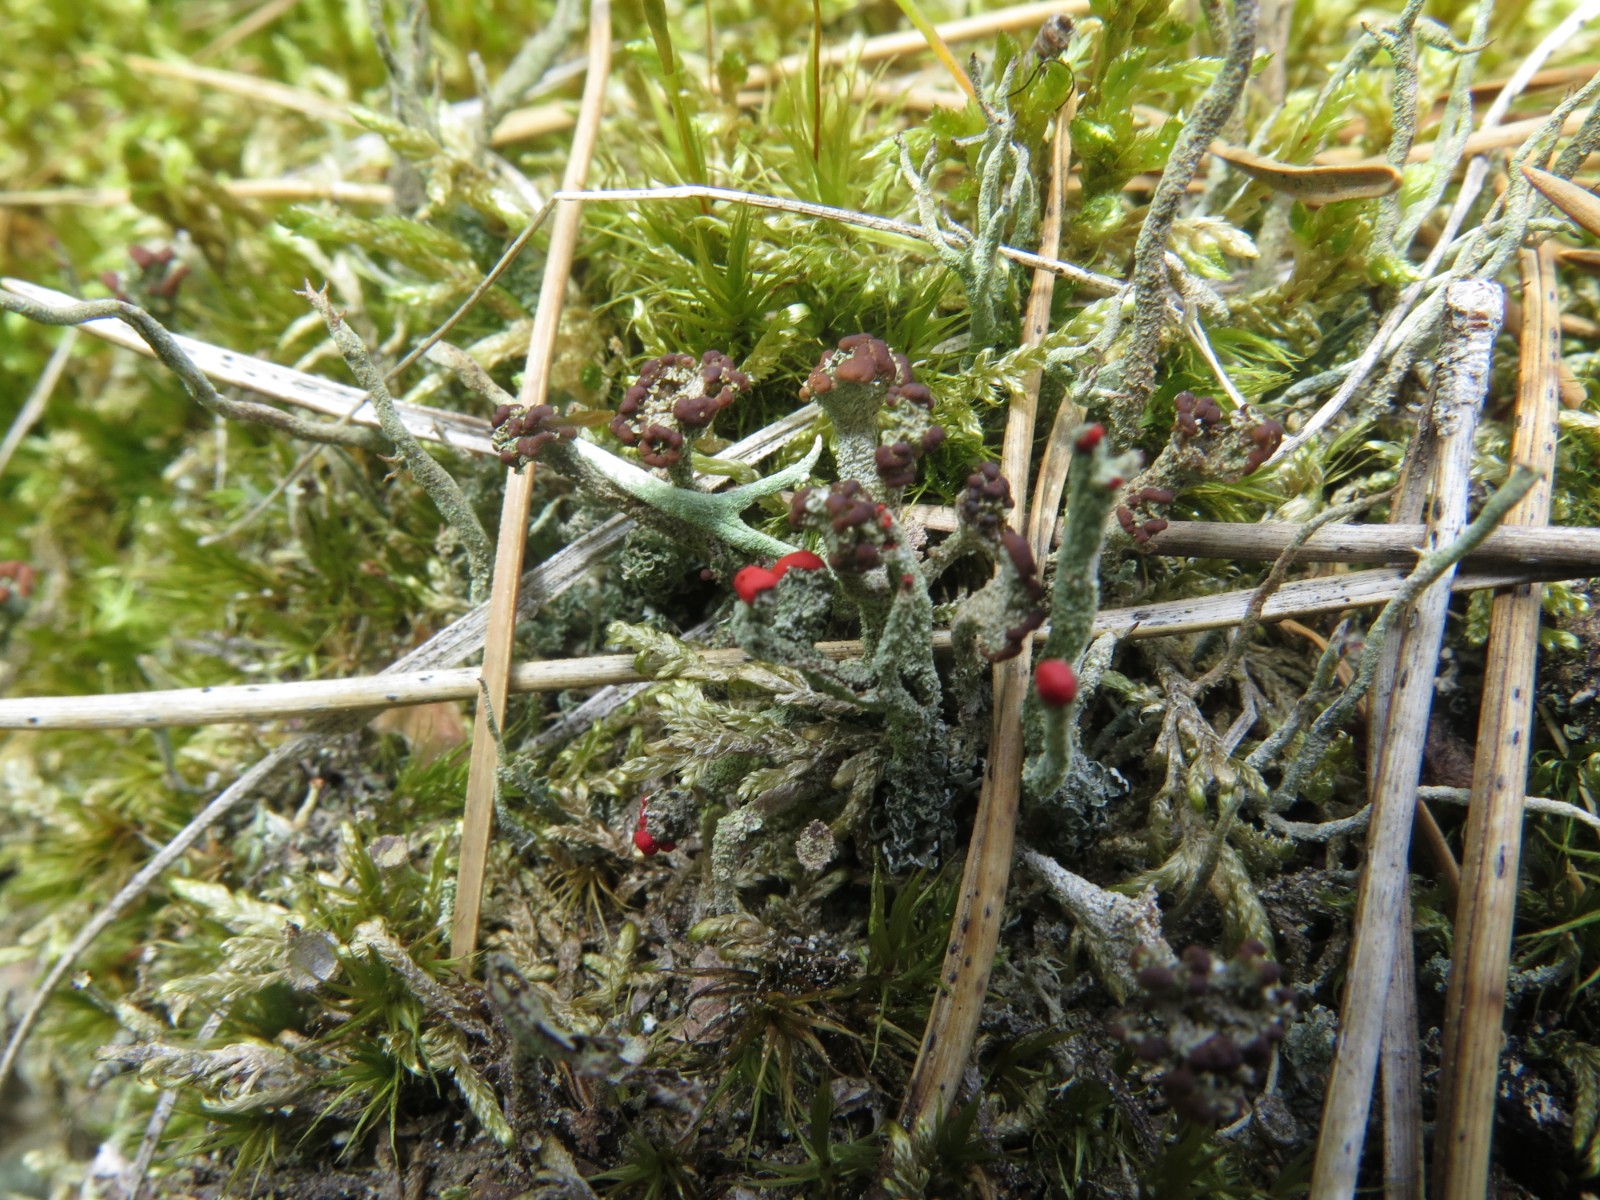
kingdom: Fungi
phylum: Ascomycota
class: Lecanoromycetes
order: Lecanorales
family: Cladoniaceae
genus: Cladonia
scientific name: Cladonia floerkeana
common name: lakrød bægerlav
